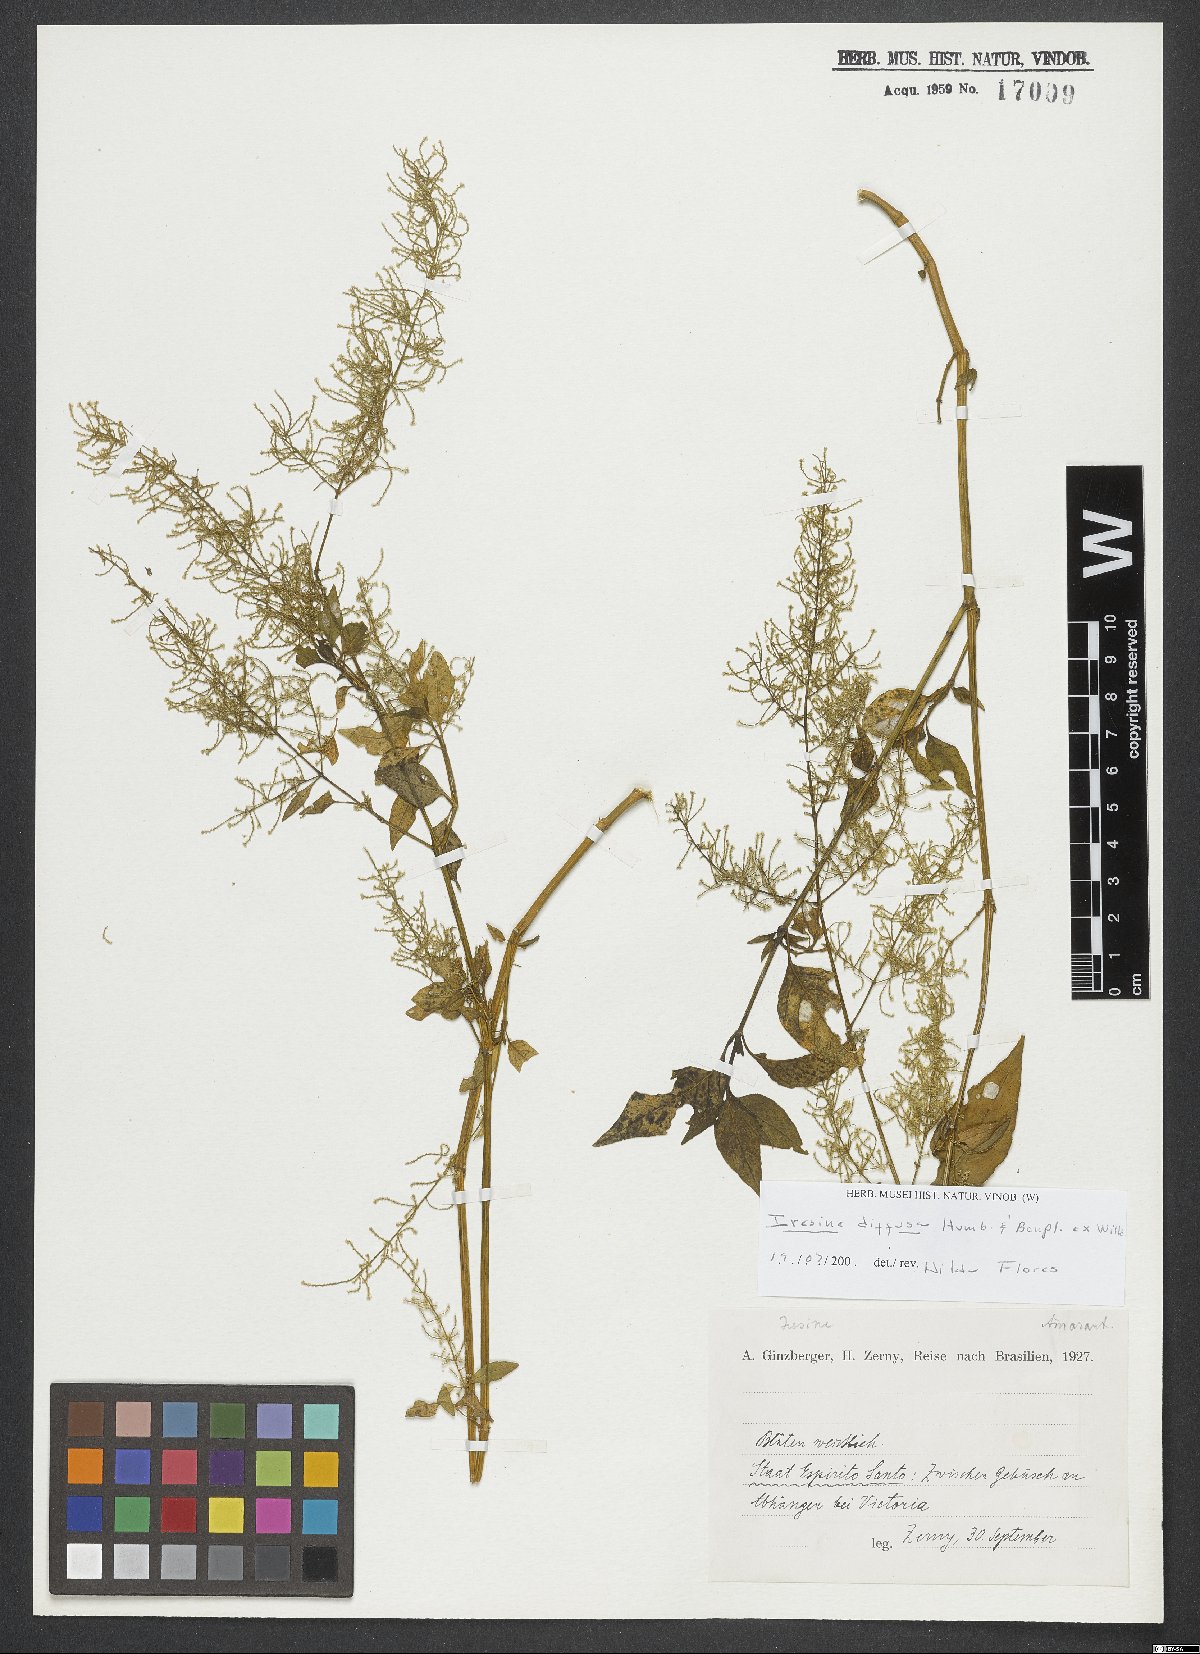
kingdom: Plantae
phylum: Tracheophyta
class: Magnoliopsida
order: Caryophyllales
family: Amaranthaceae
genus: Iresine
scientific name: Iresine diffusa
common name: Juba's-bush
